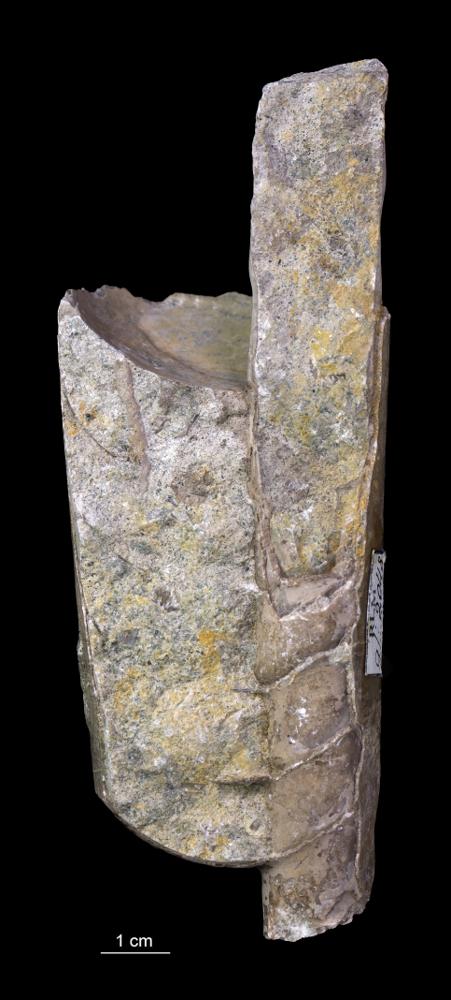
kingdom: Animalia
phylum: Mollusca
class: Cephalopoda
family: Estonioceratidae
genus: Estonioceras
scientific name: Estonioceras
